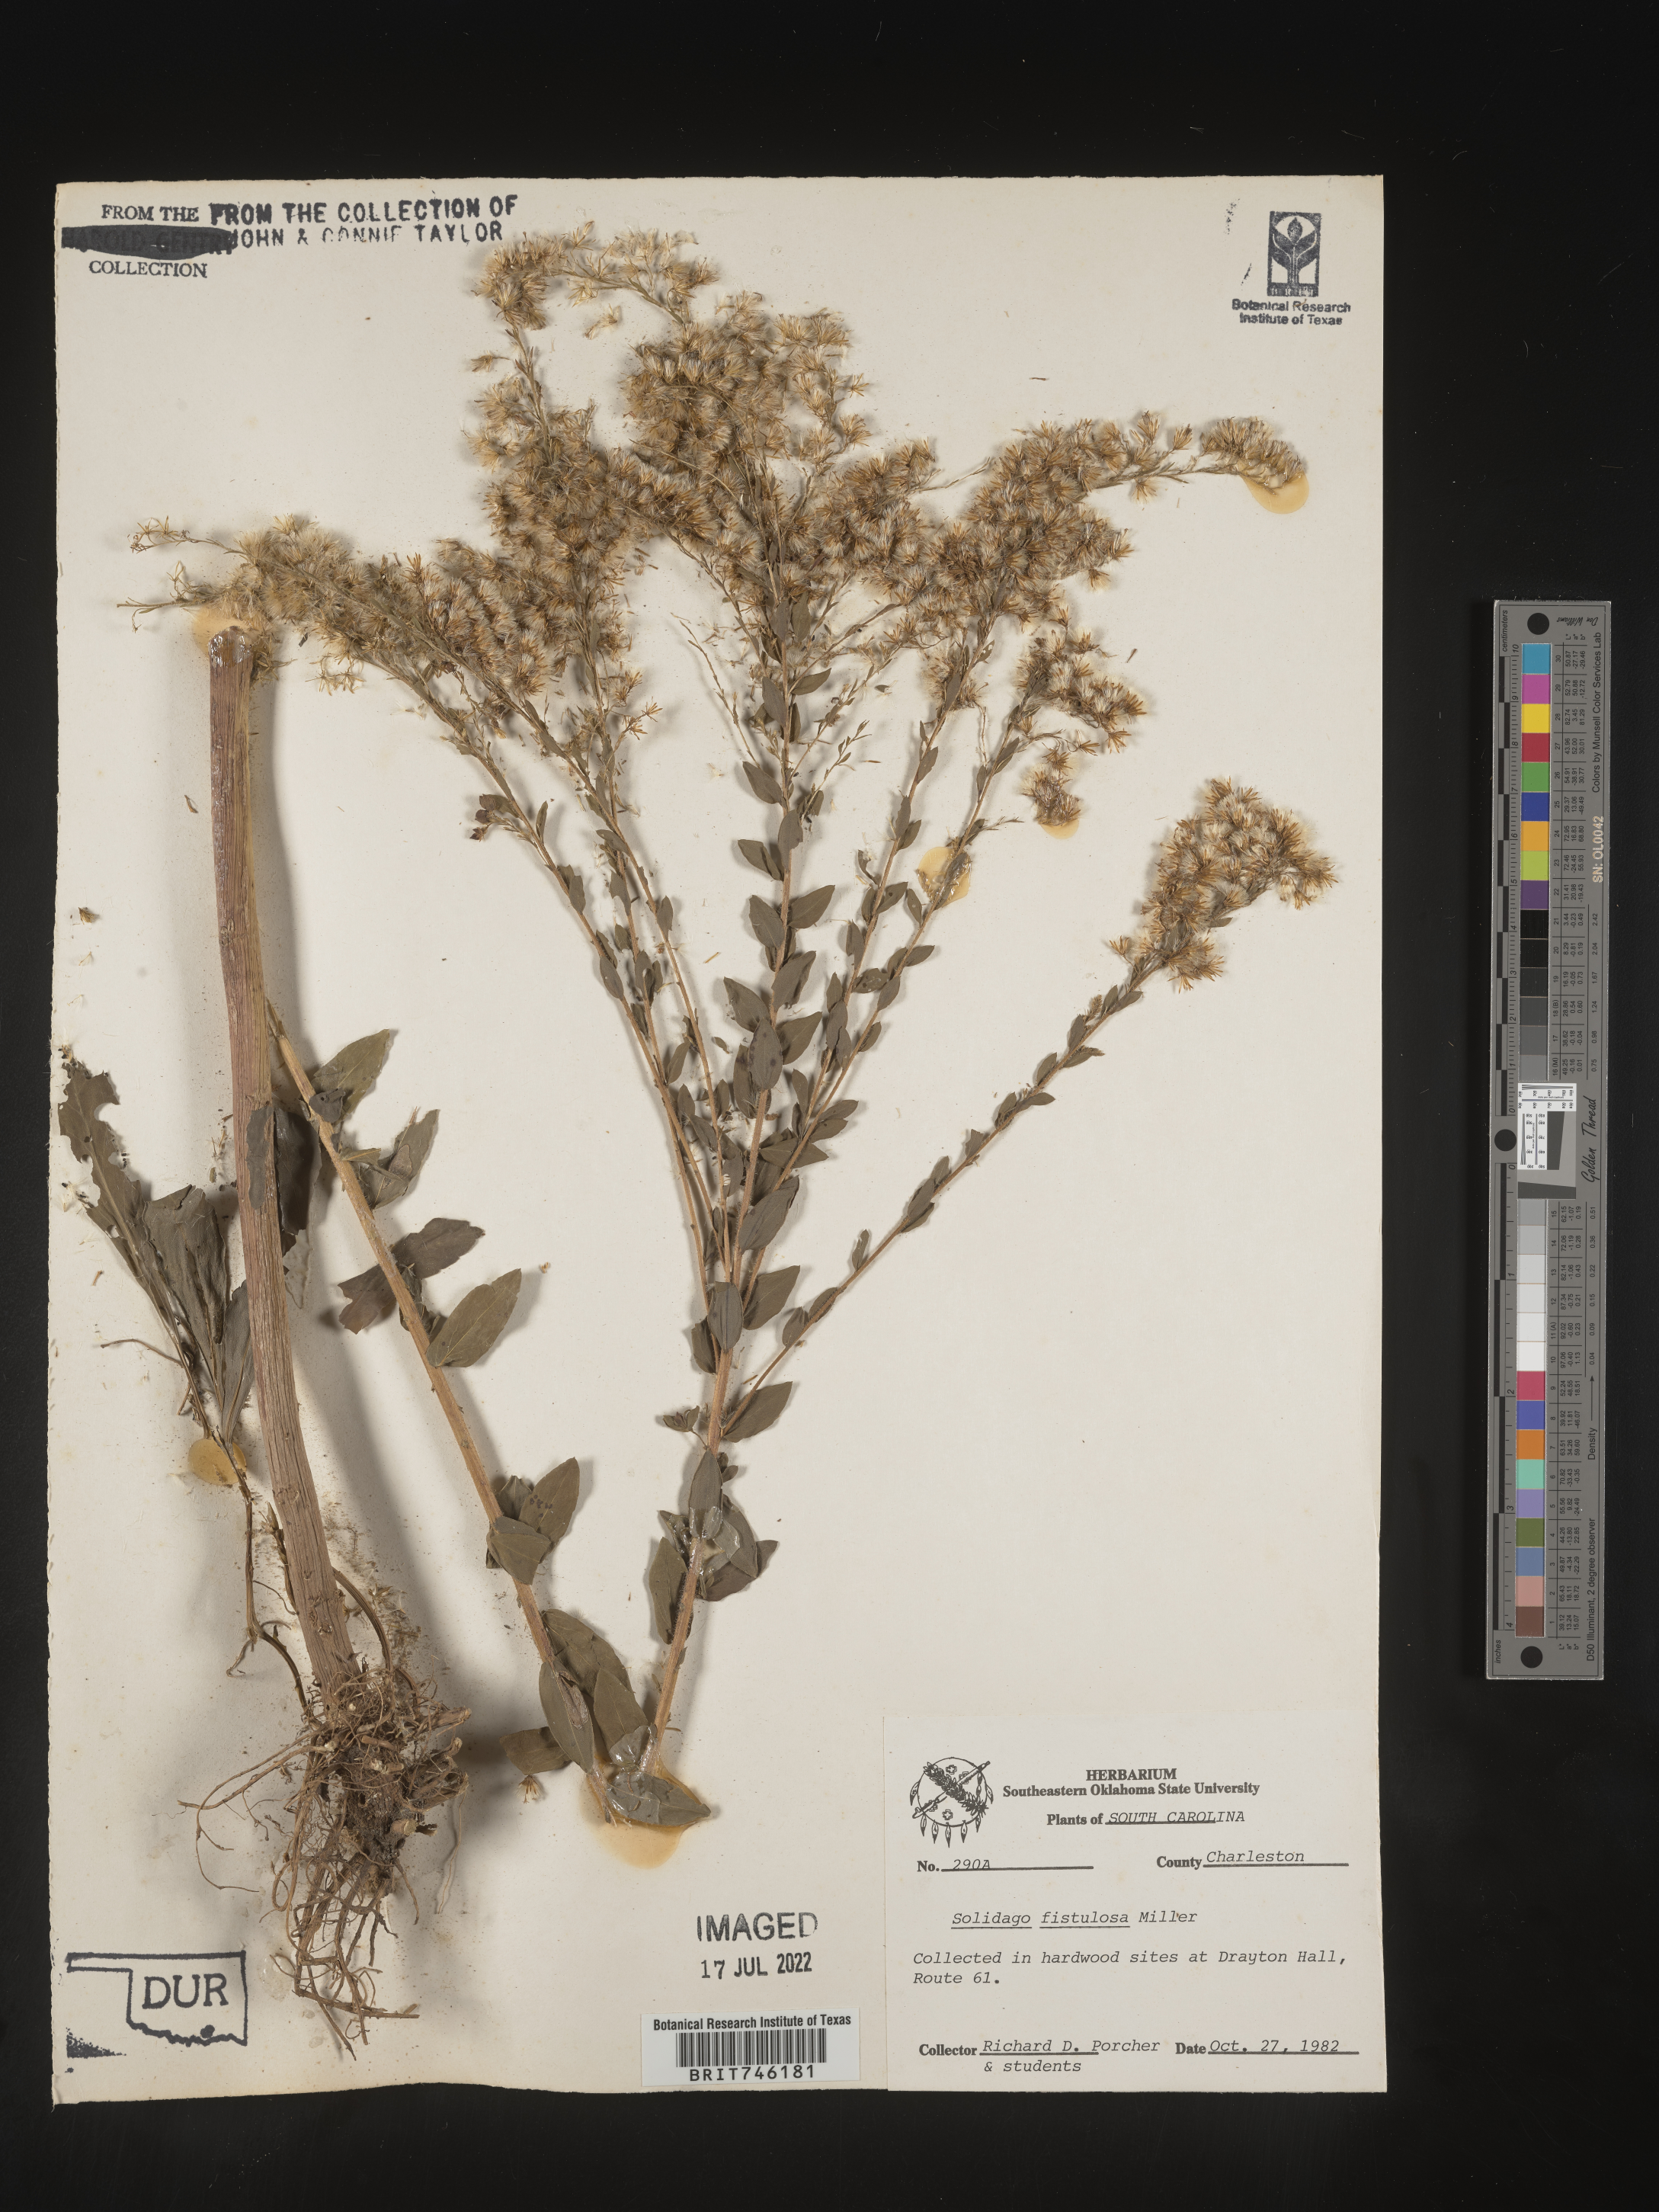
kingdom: Plantae
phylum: Tracheophyta
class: Magnoliopsida
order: Asterales
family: Asteraceae
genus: Solidago
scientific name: Solidago fistulosa
